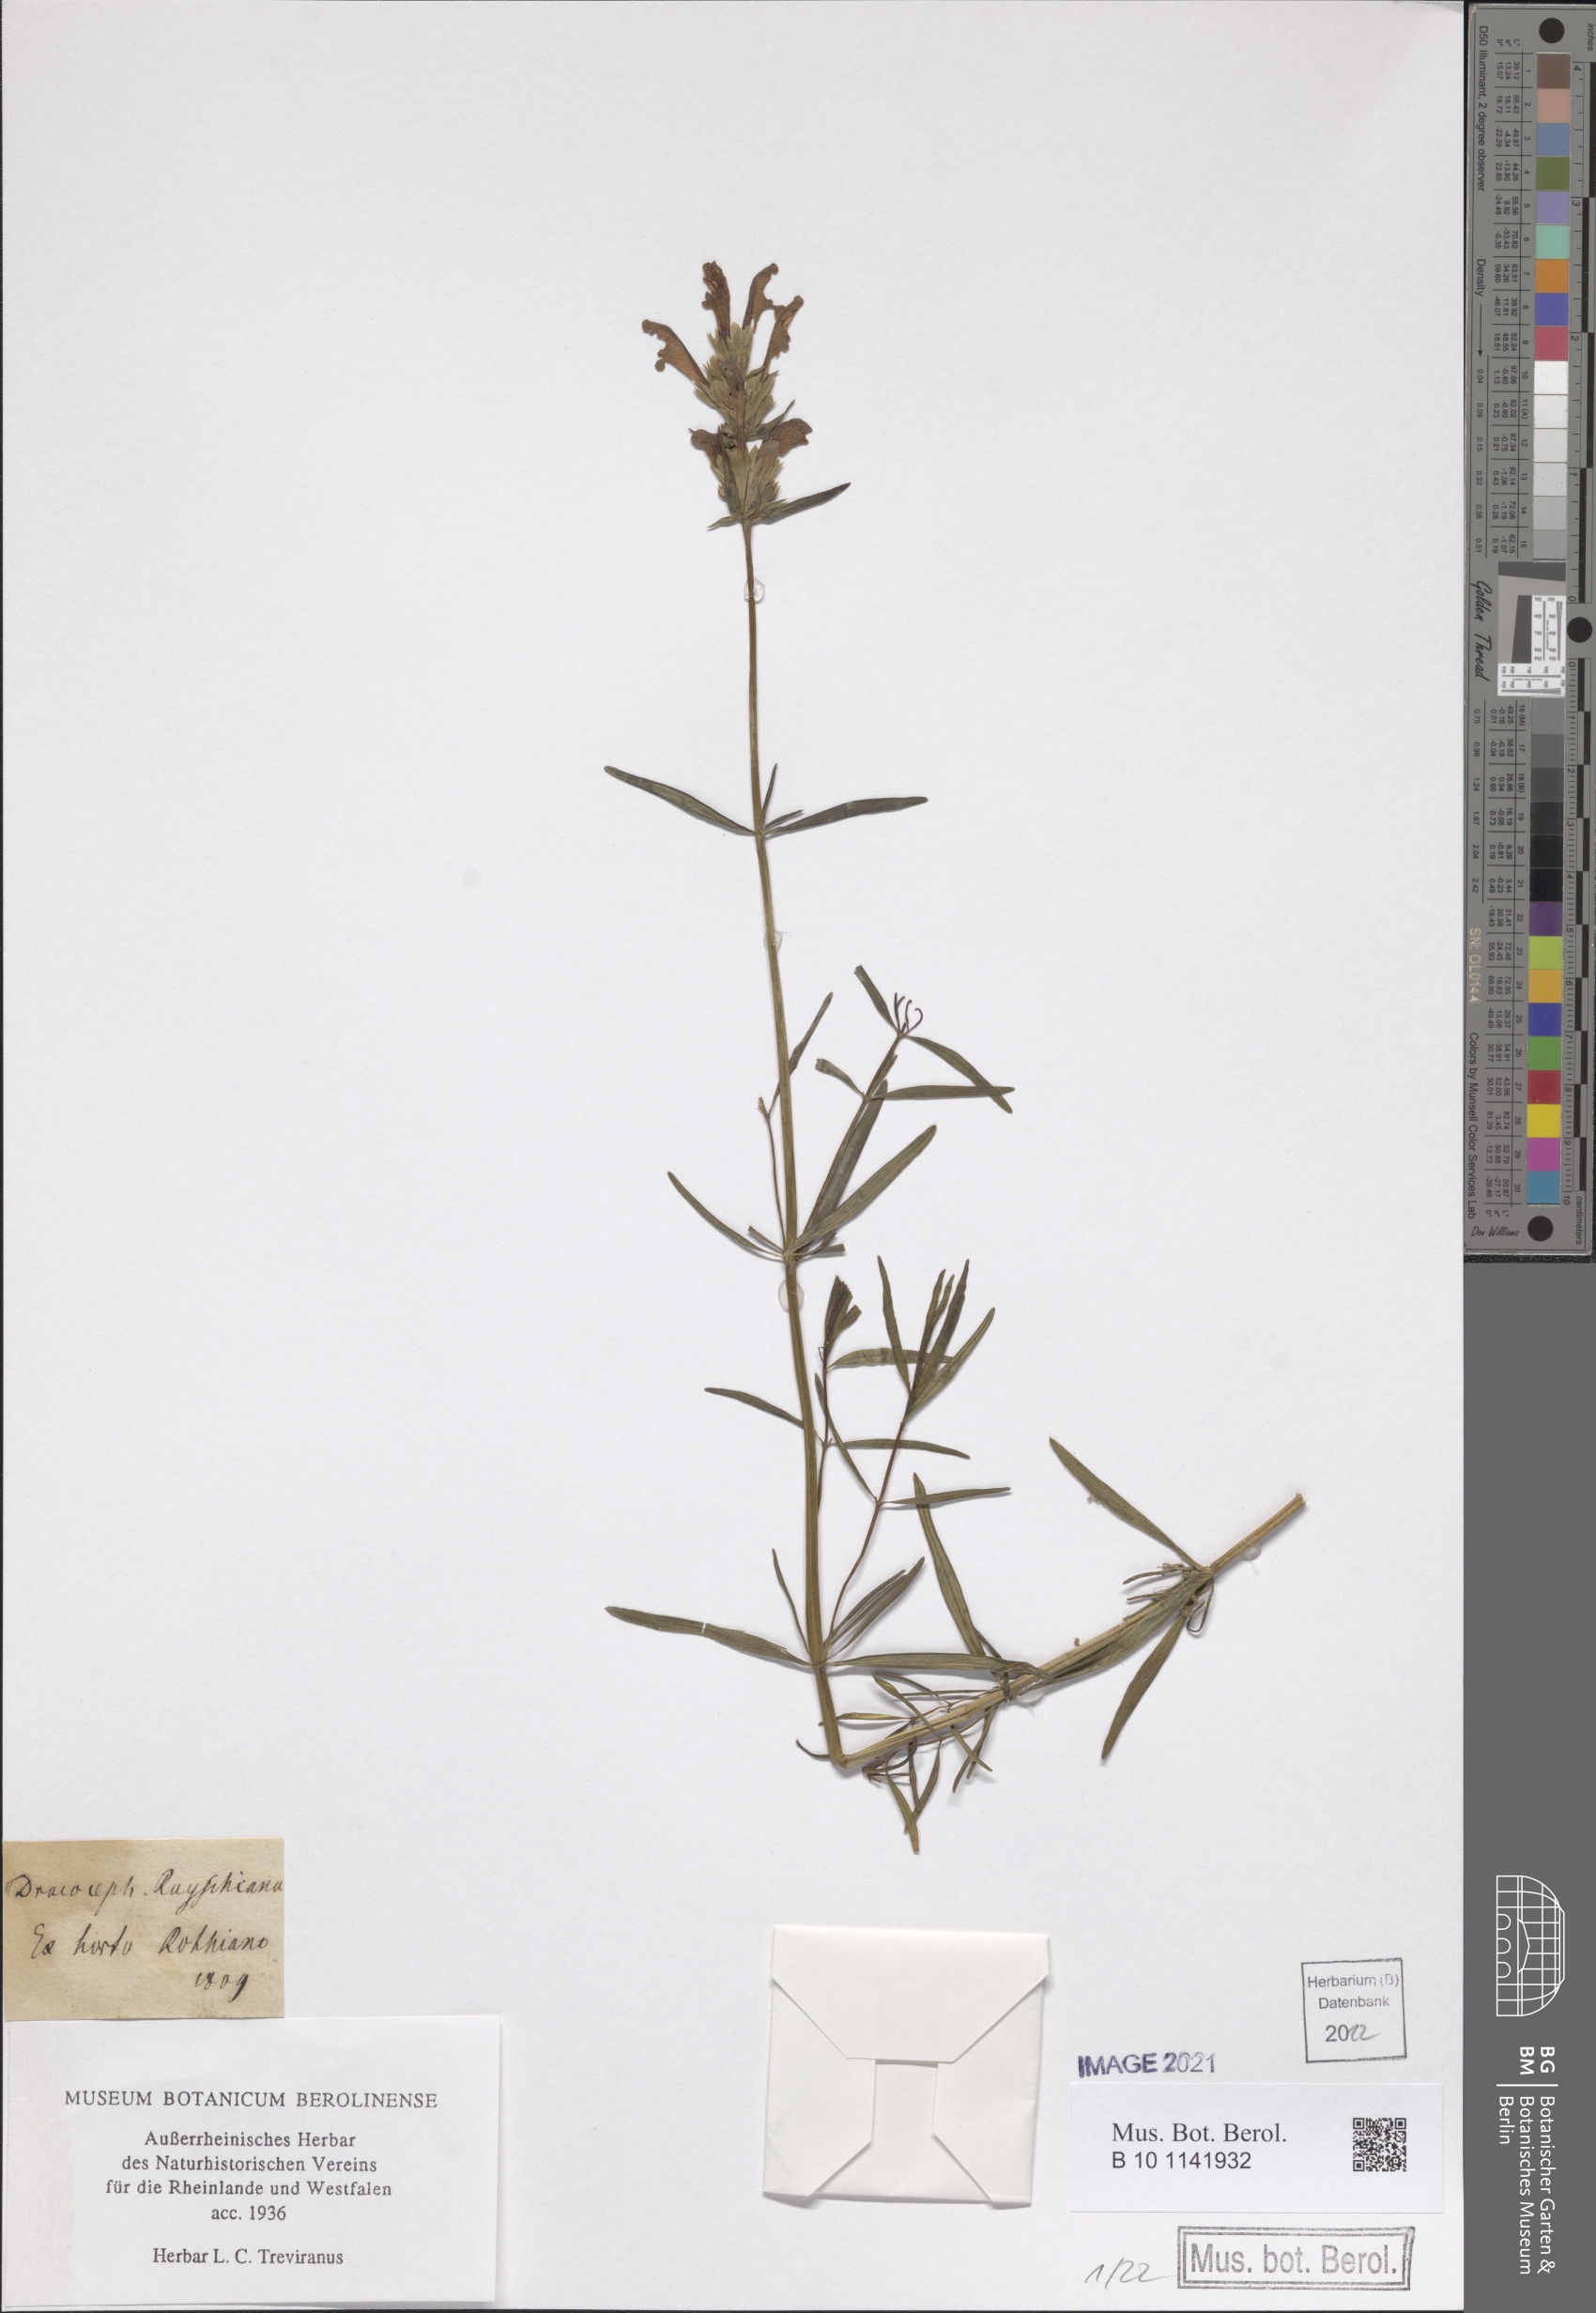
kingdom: Plantae
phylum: Tracheophyta
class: Magnoliopsida
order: Lamiales
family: Lamiaceae
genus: Dracocephalum
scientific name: Dracocephalum ruyschiana
